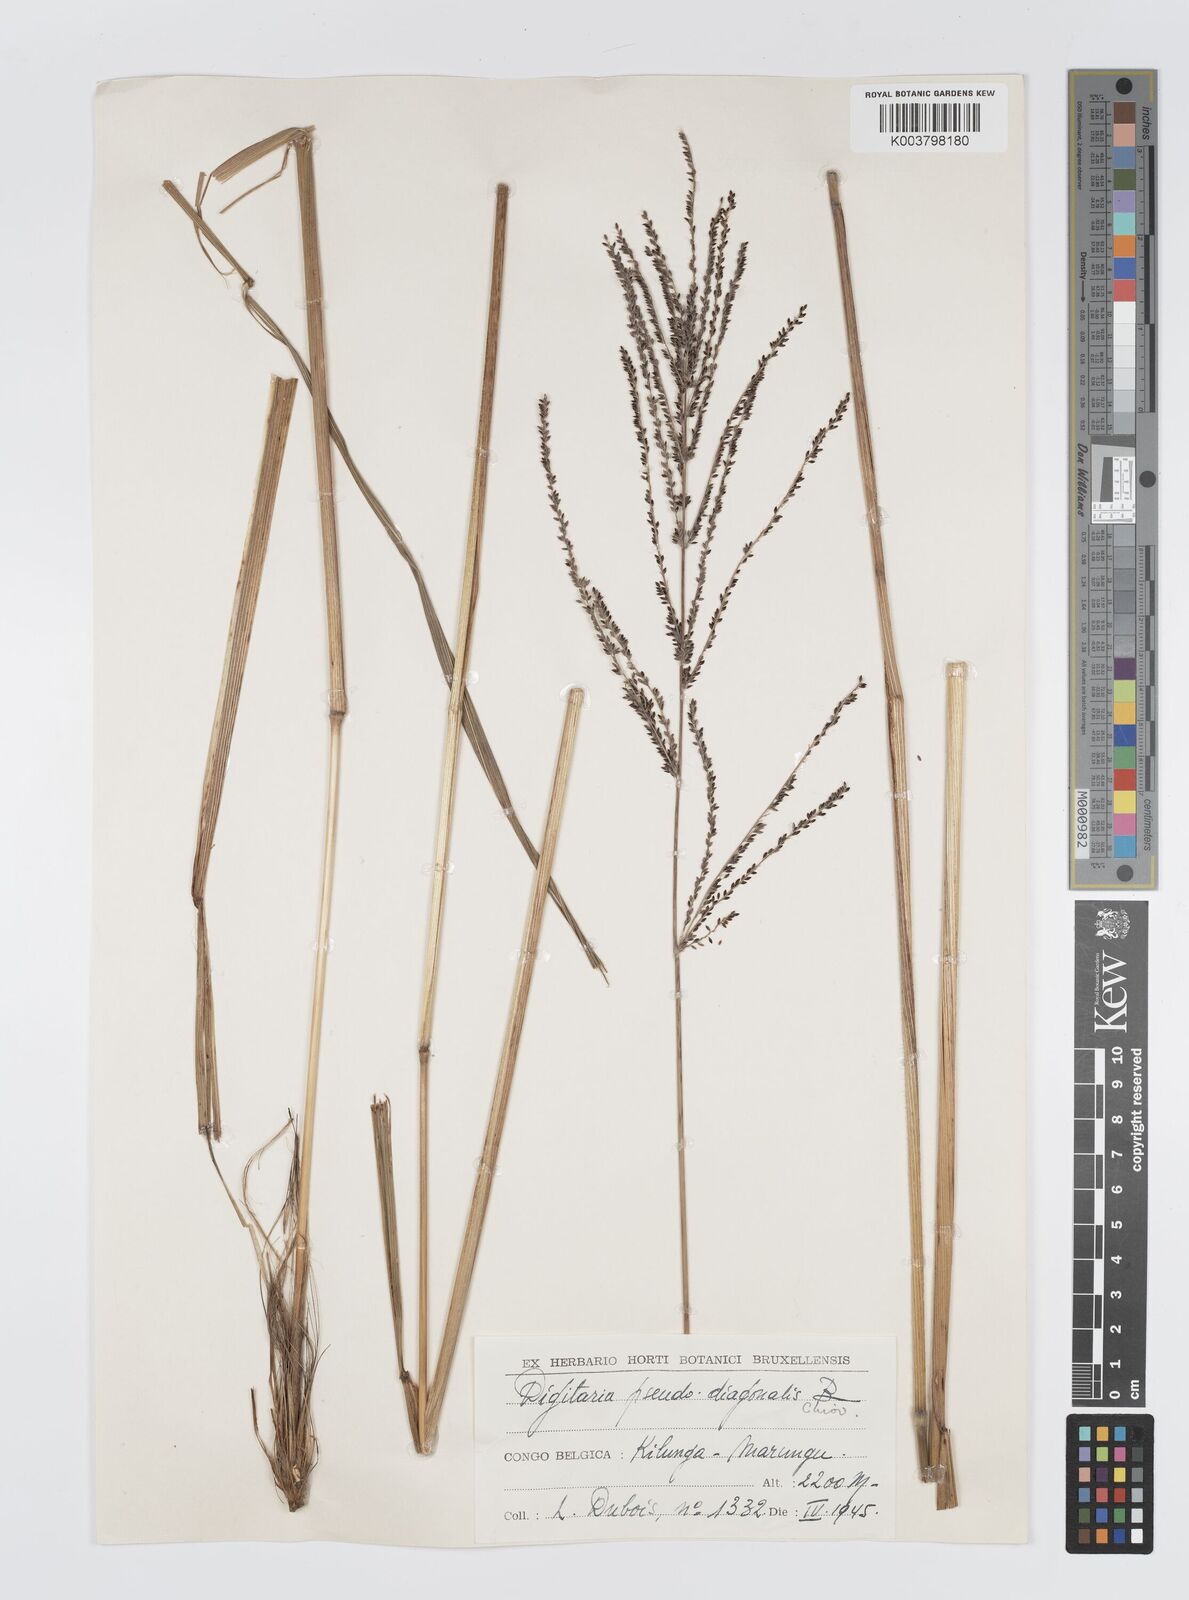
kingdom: Plantae
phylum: Tracheophyta
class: Liliopsida
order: Poales
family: Poaceae
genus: Digitaria
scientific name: Digitaria diagonalis
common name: Brown-seed finger grass
